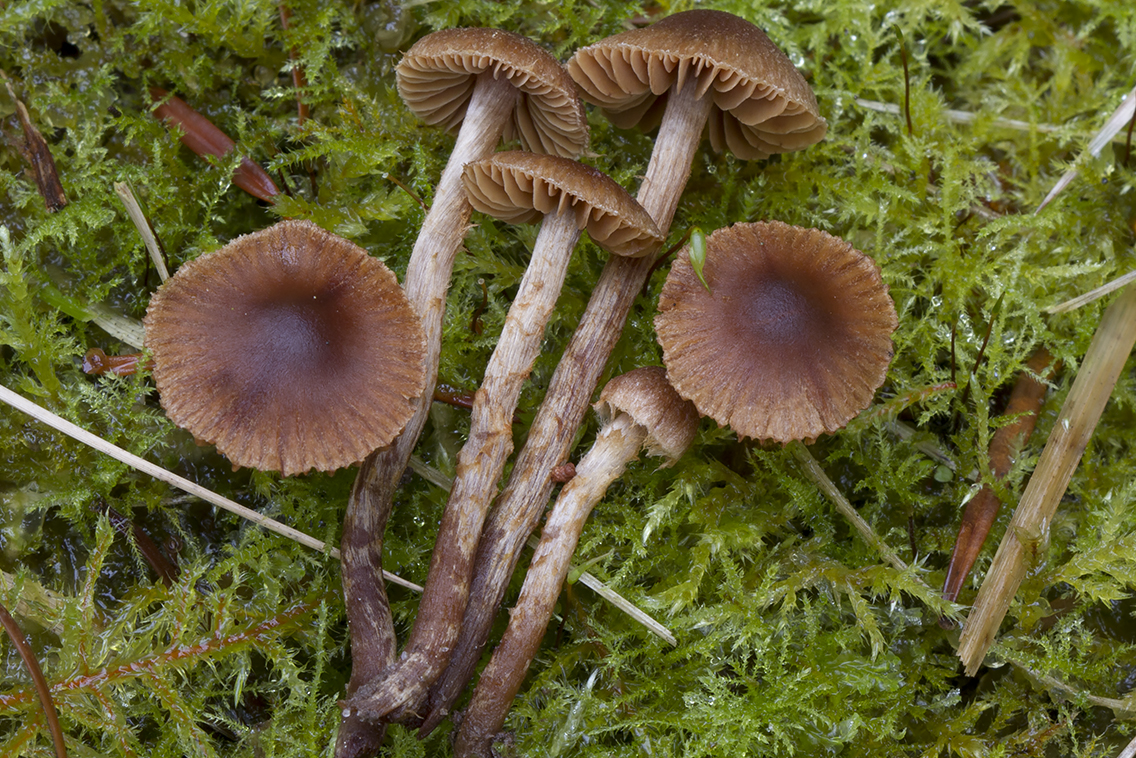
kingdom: Fungi
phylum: Basidiomycota
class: Agaricomycetes
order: Agaricales
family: Cortinariaceae
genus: Cortinarius
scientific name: Cortinarius castaneopallidus
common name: bronzetrævlet slørhat
